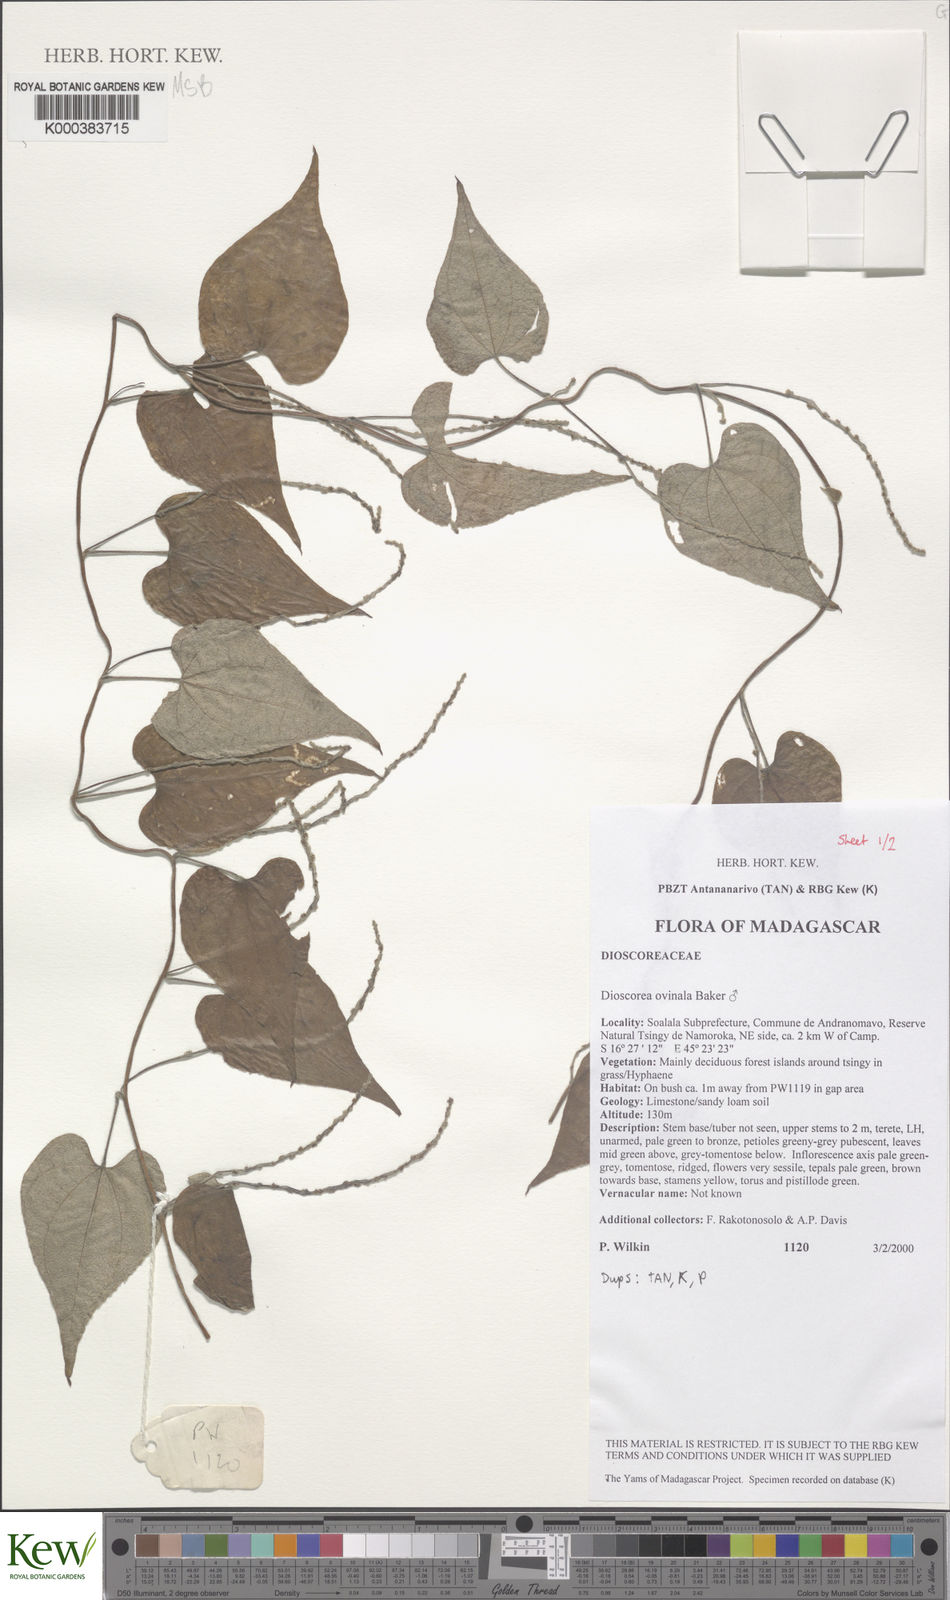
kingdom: Plantae
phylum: Tracheophyta
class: Liliopsida
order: Dioscoreales
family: Dioscoreaceae
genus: Dioscorea
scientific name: Dioscorea ovinala
